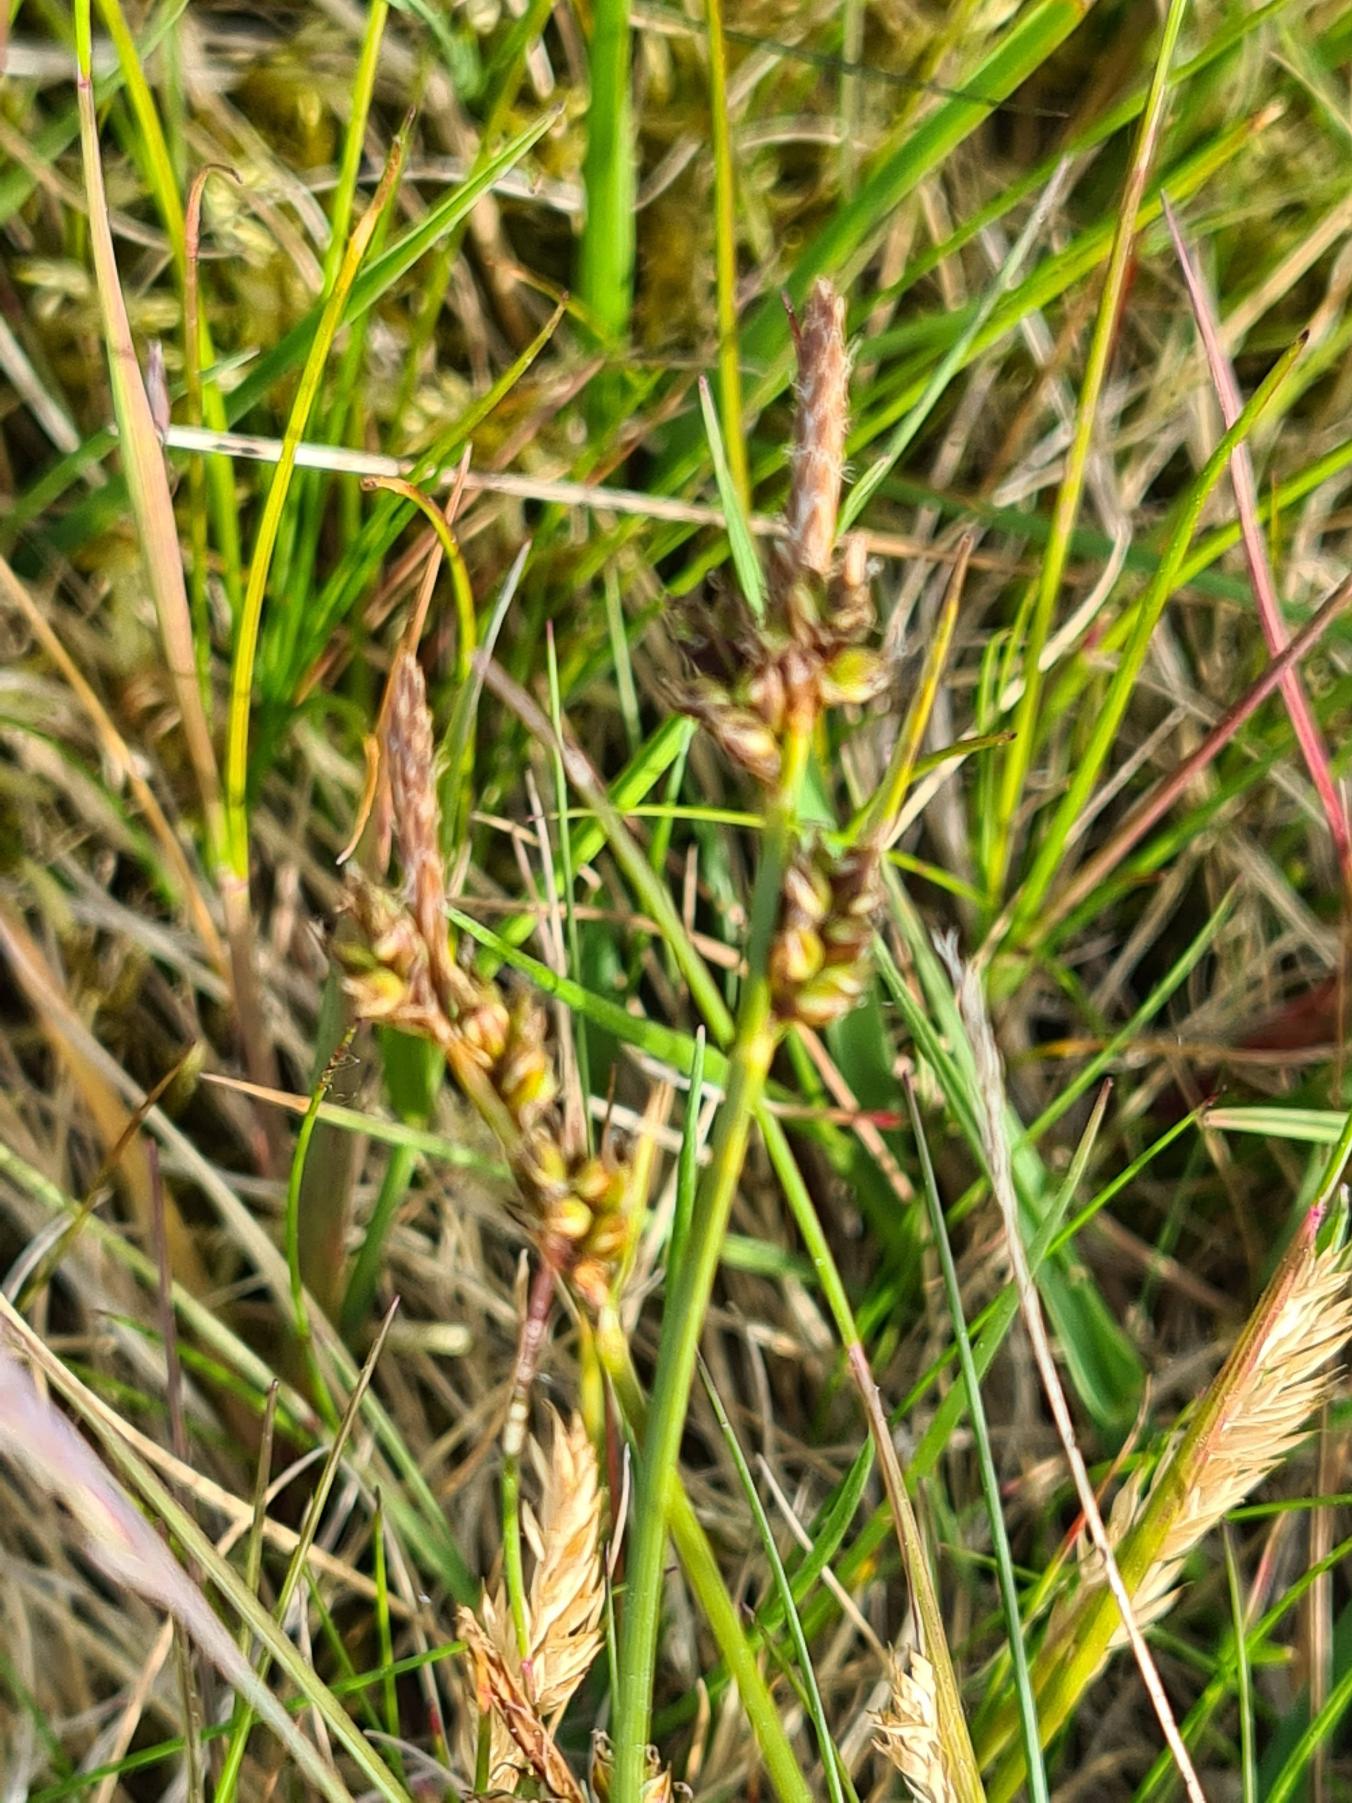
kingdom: Plantae
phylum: Tracheophyta
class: Liliopsida
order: Poales
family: Cyperaceae
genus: Carex
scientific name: Carex pilulifera
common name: Pille-star
